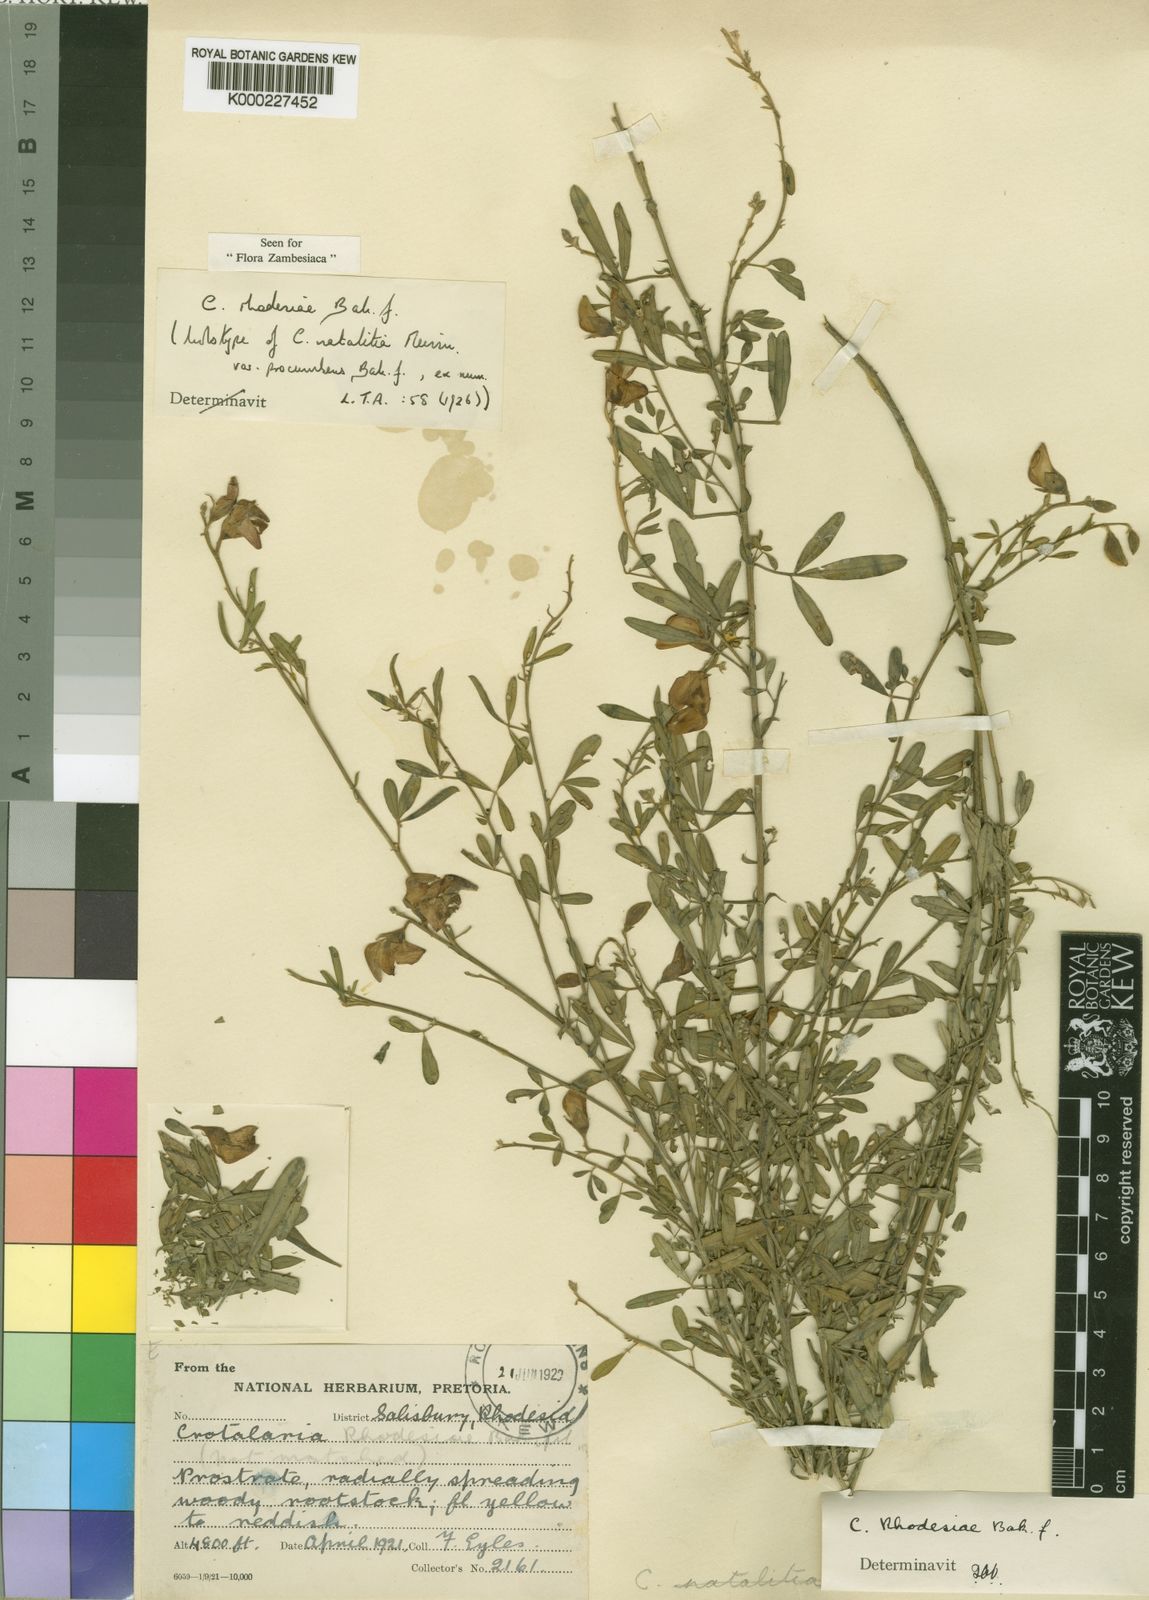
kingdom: Plantae
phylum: Tracheophyta
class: Magnoliopsida
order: Fabales
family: Fabaceae
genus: Crotalaria
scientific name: Crotalaria rhodesiae
